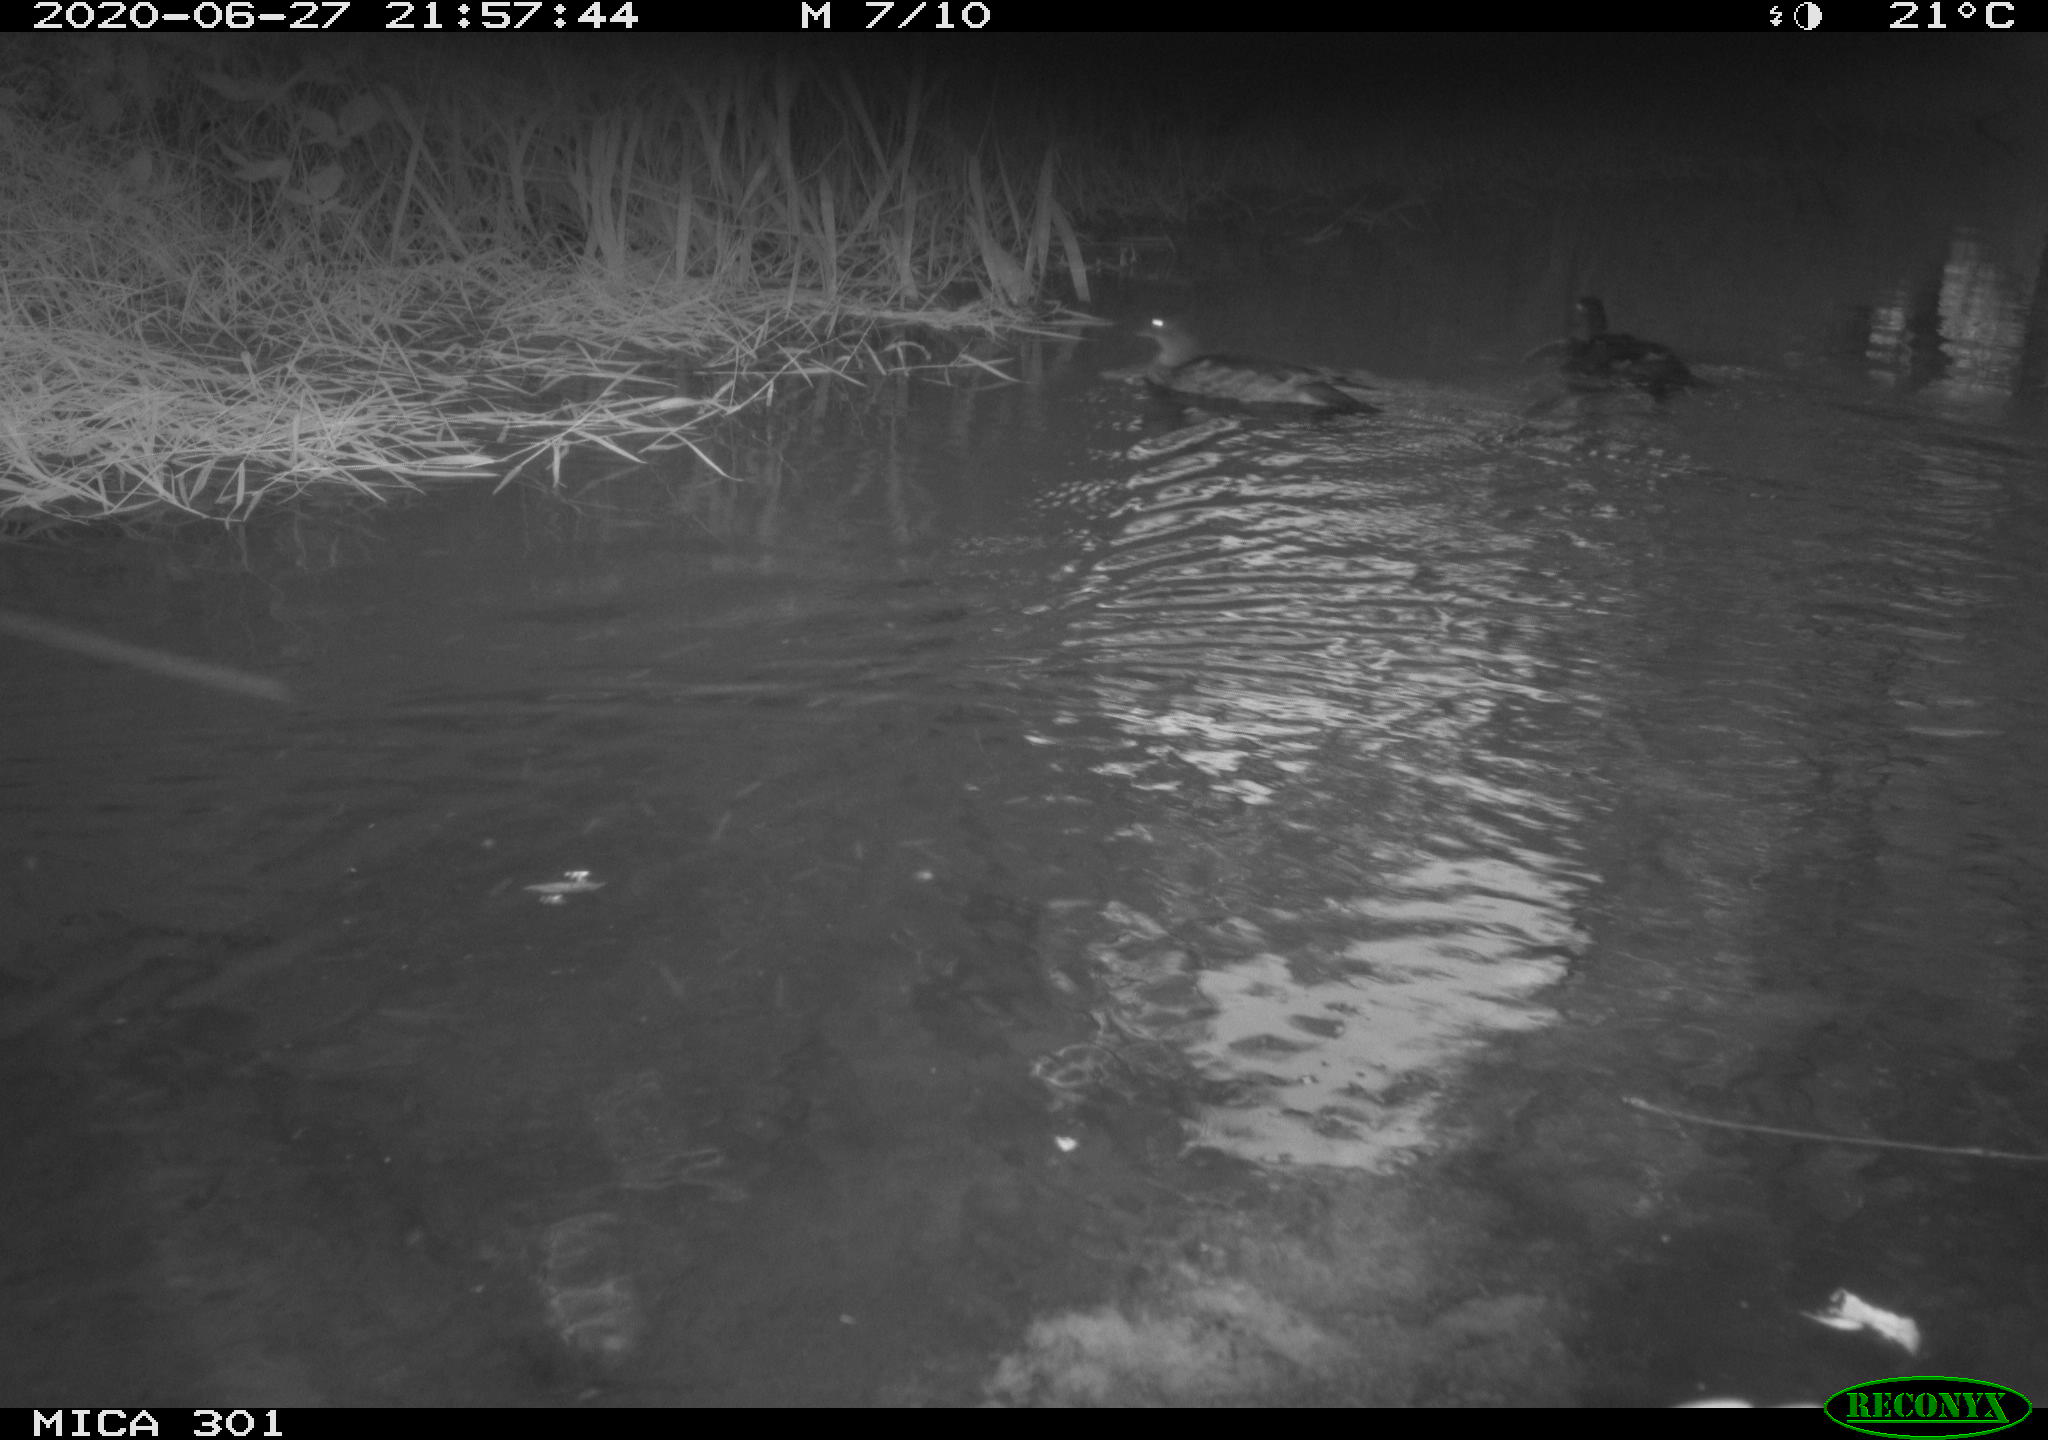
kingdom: Animalia
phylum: Chordata
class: Aves
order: Anseriformes
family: Anatidae
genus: Aix
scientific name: Aix galericulata
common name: Mandarin duck
